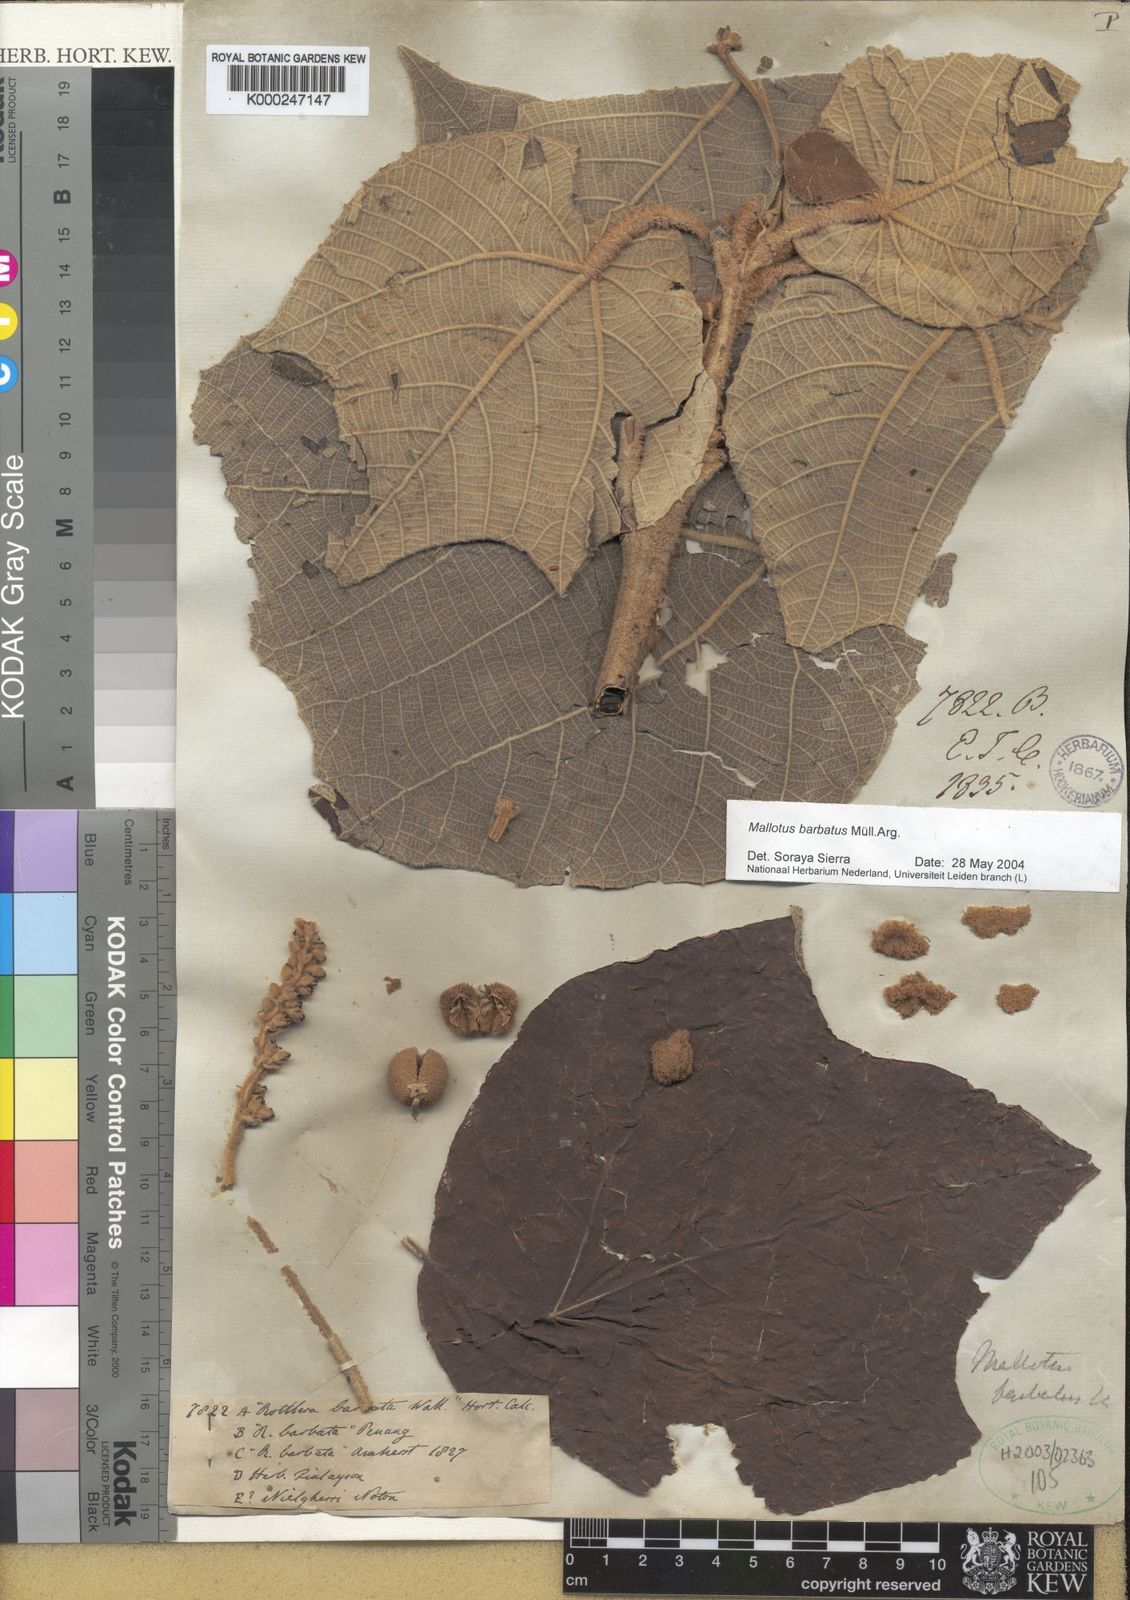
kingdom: Plantae
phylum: Tracheophyta
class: Magnoliopsida
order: Malpighiales
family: Euphorbiaceae
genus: Mallotus
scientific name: Mallotus
